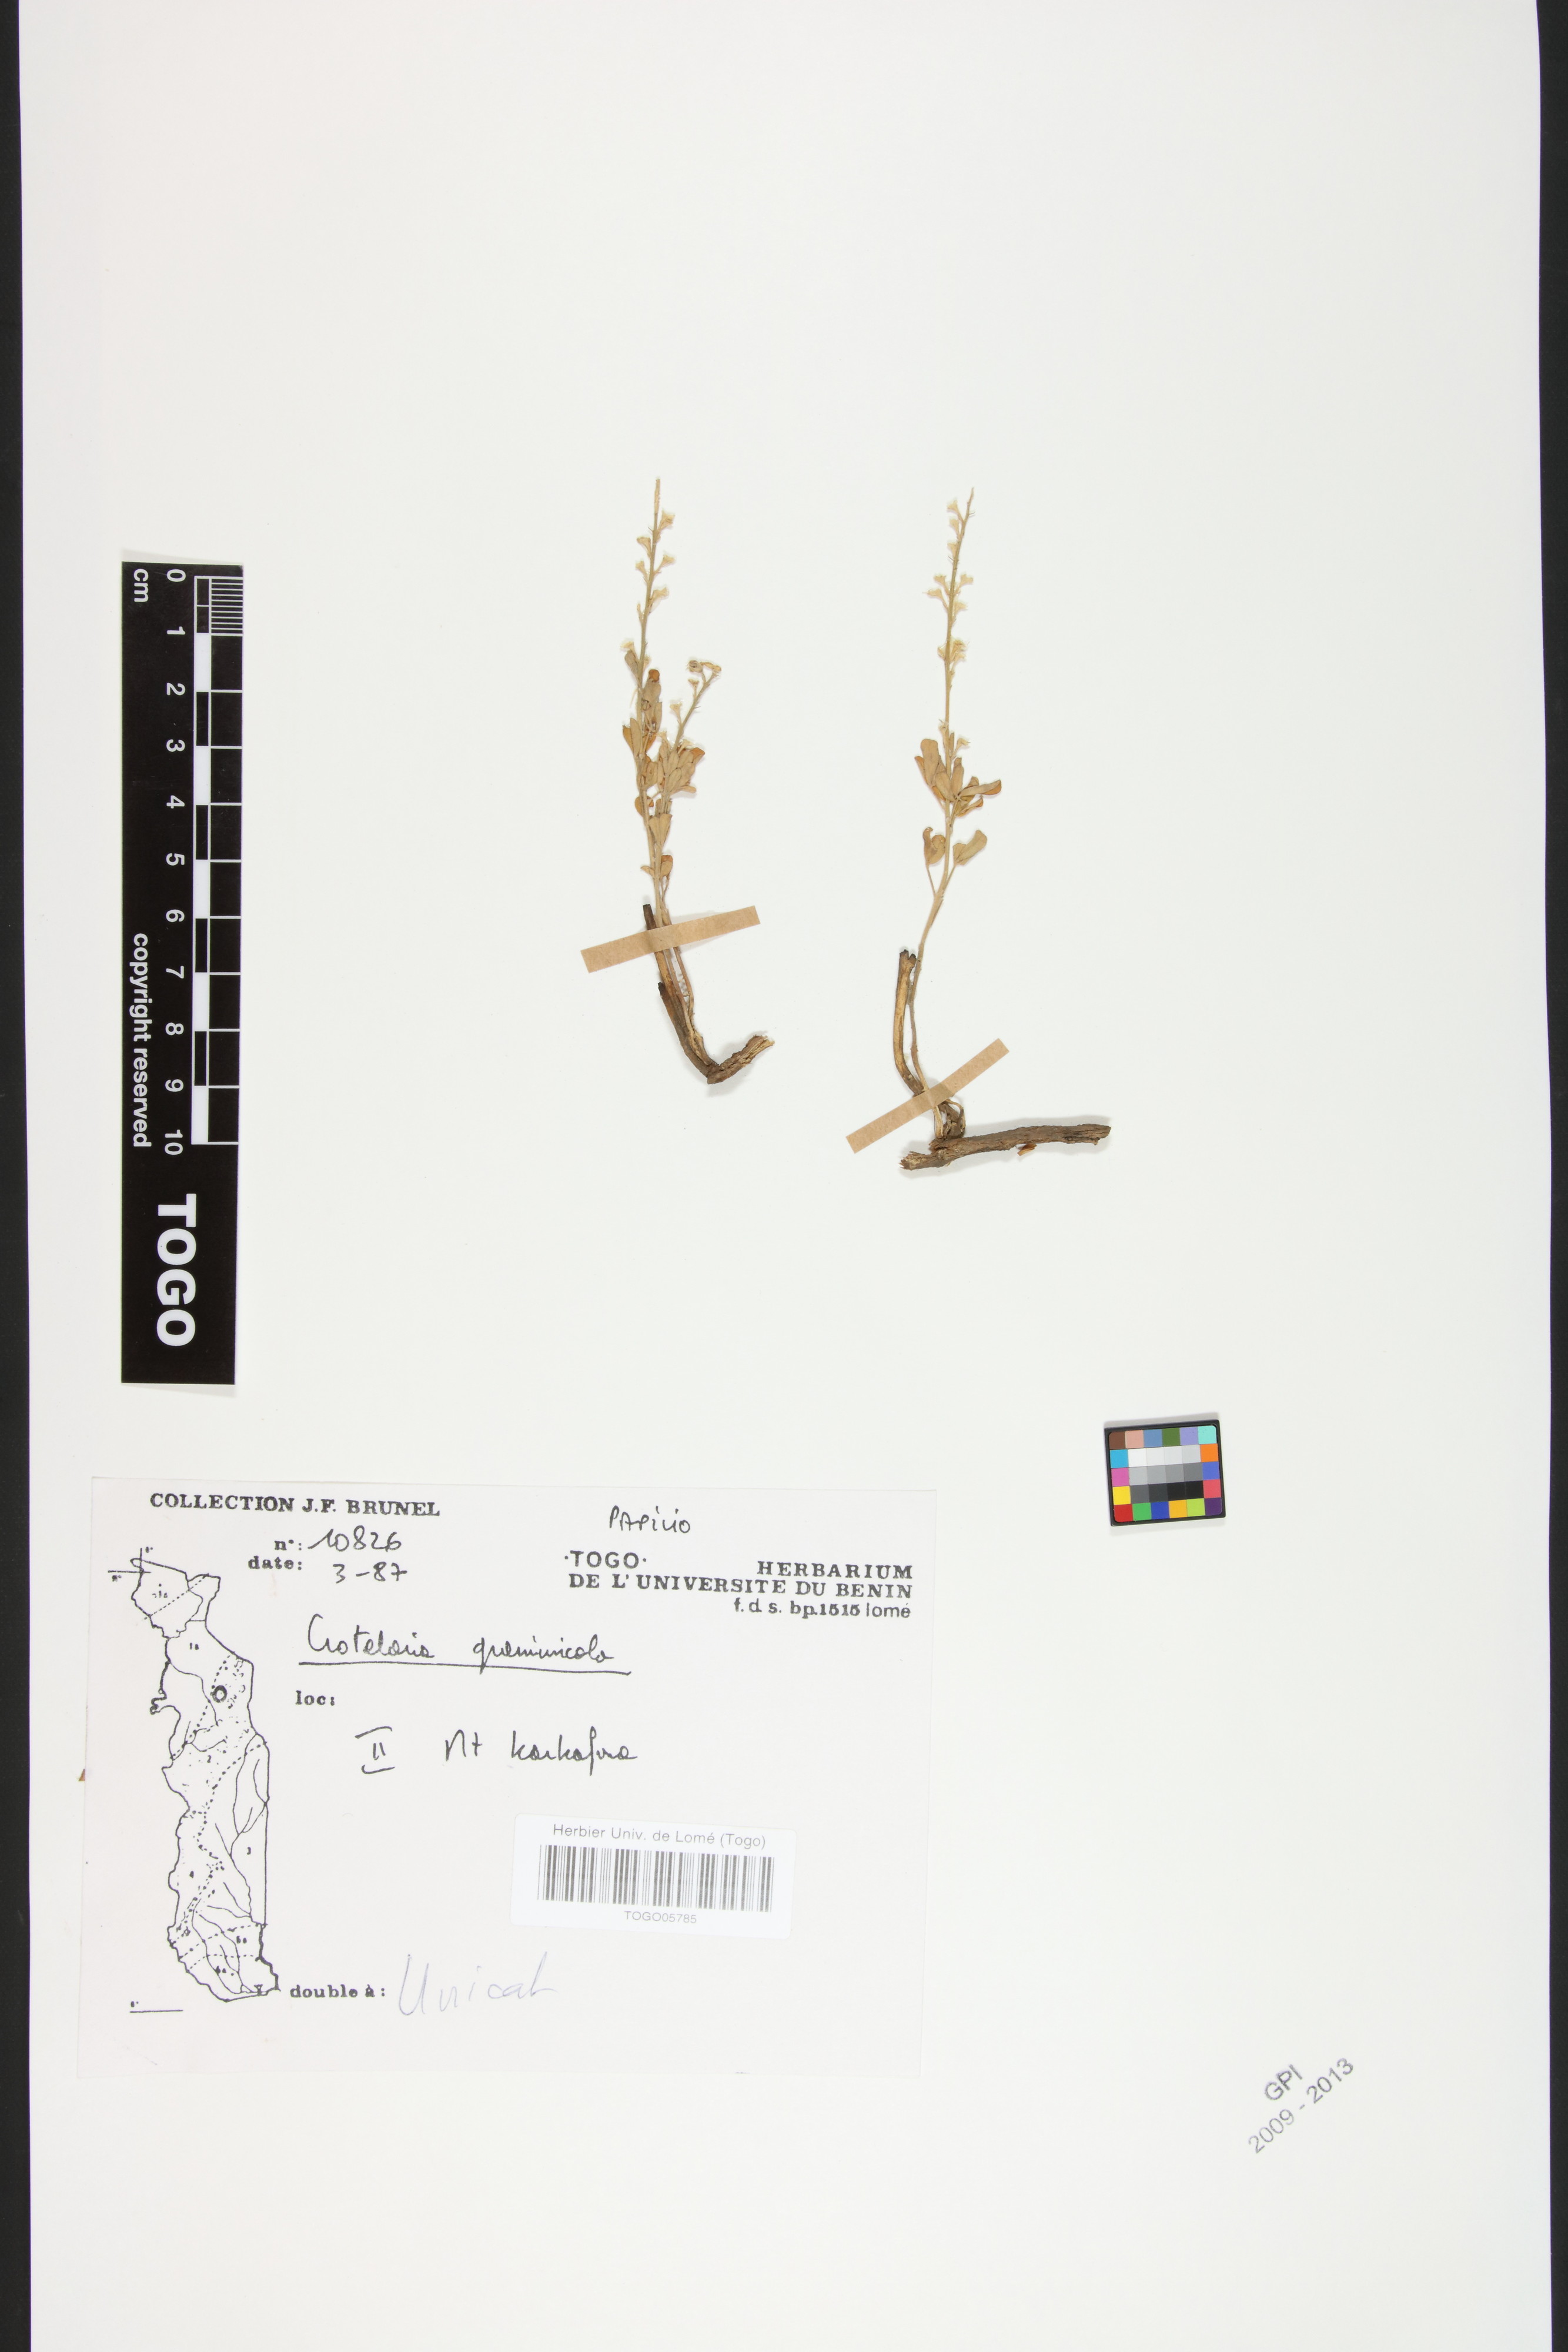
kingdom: Plantae
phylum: Tracheophyta
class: Magnoliopsida
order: Fabales
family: Fabaceae
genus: Crotalaria
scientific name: Crotalaria graminicola
